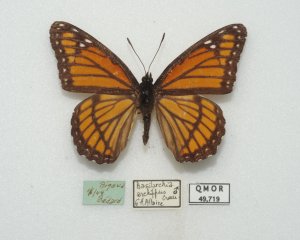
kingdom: Animalia
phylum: Arthropoda
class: Insecta
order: Lepidoptera
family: Nymphalidae
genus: Limenitis
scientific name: Limenitis archippus
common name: Viceroy
